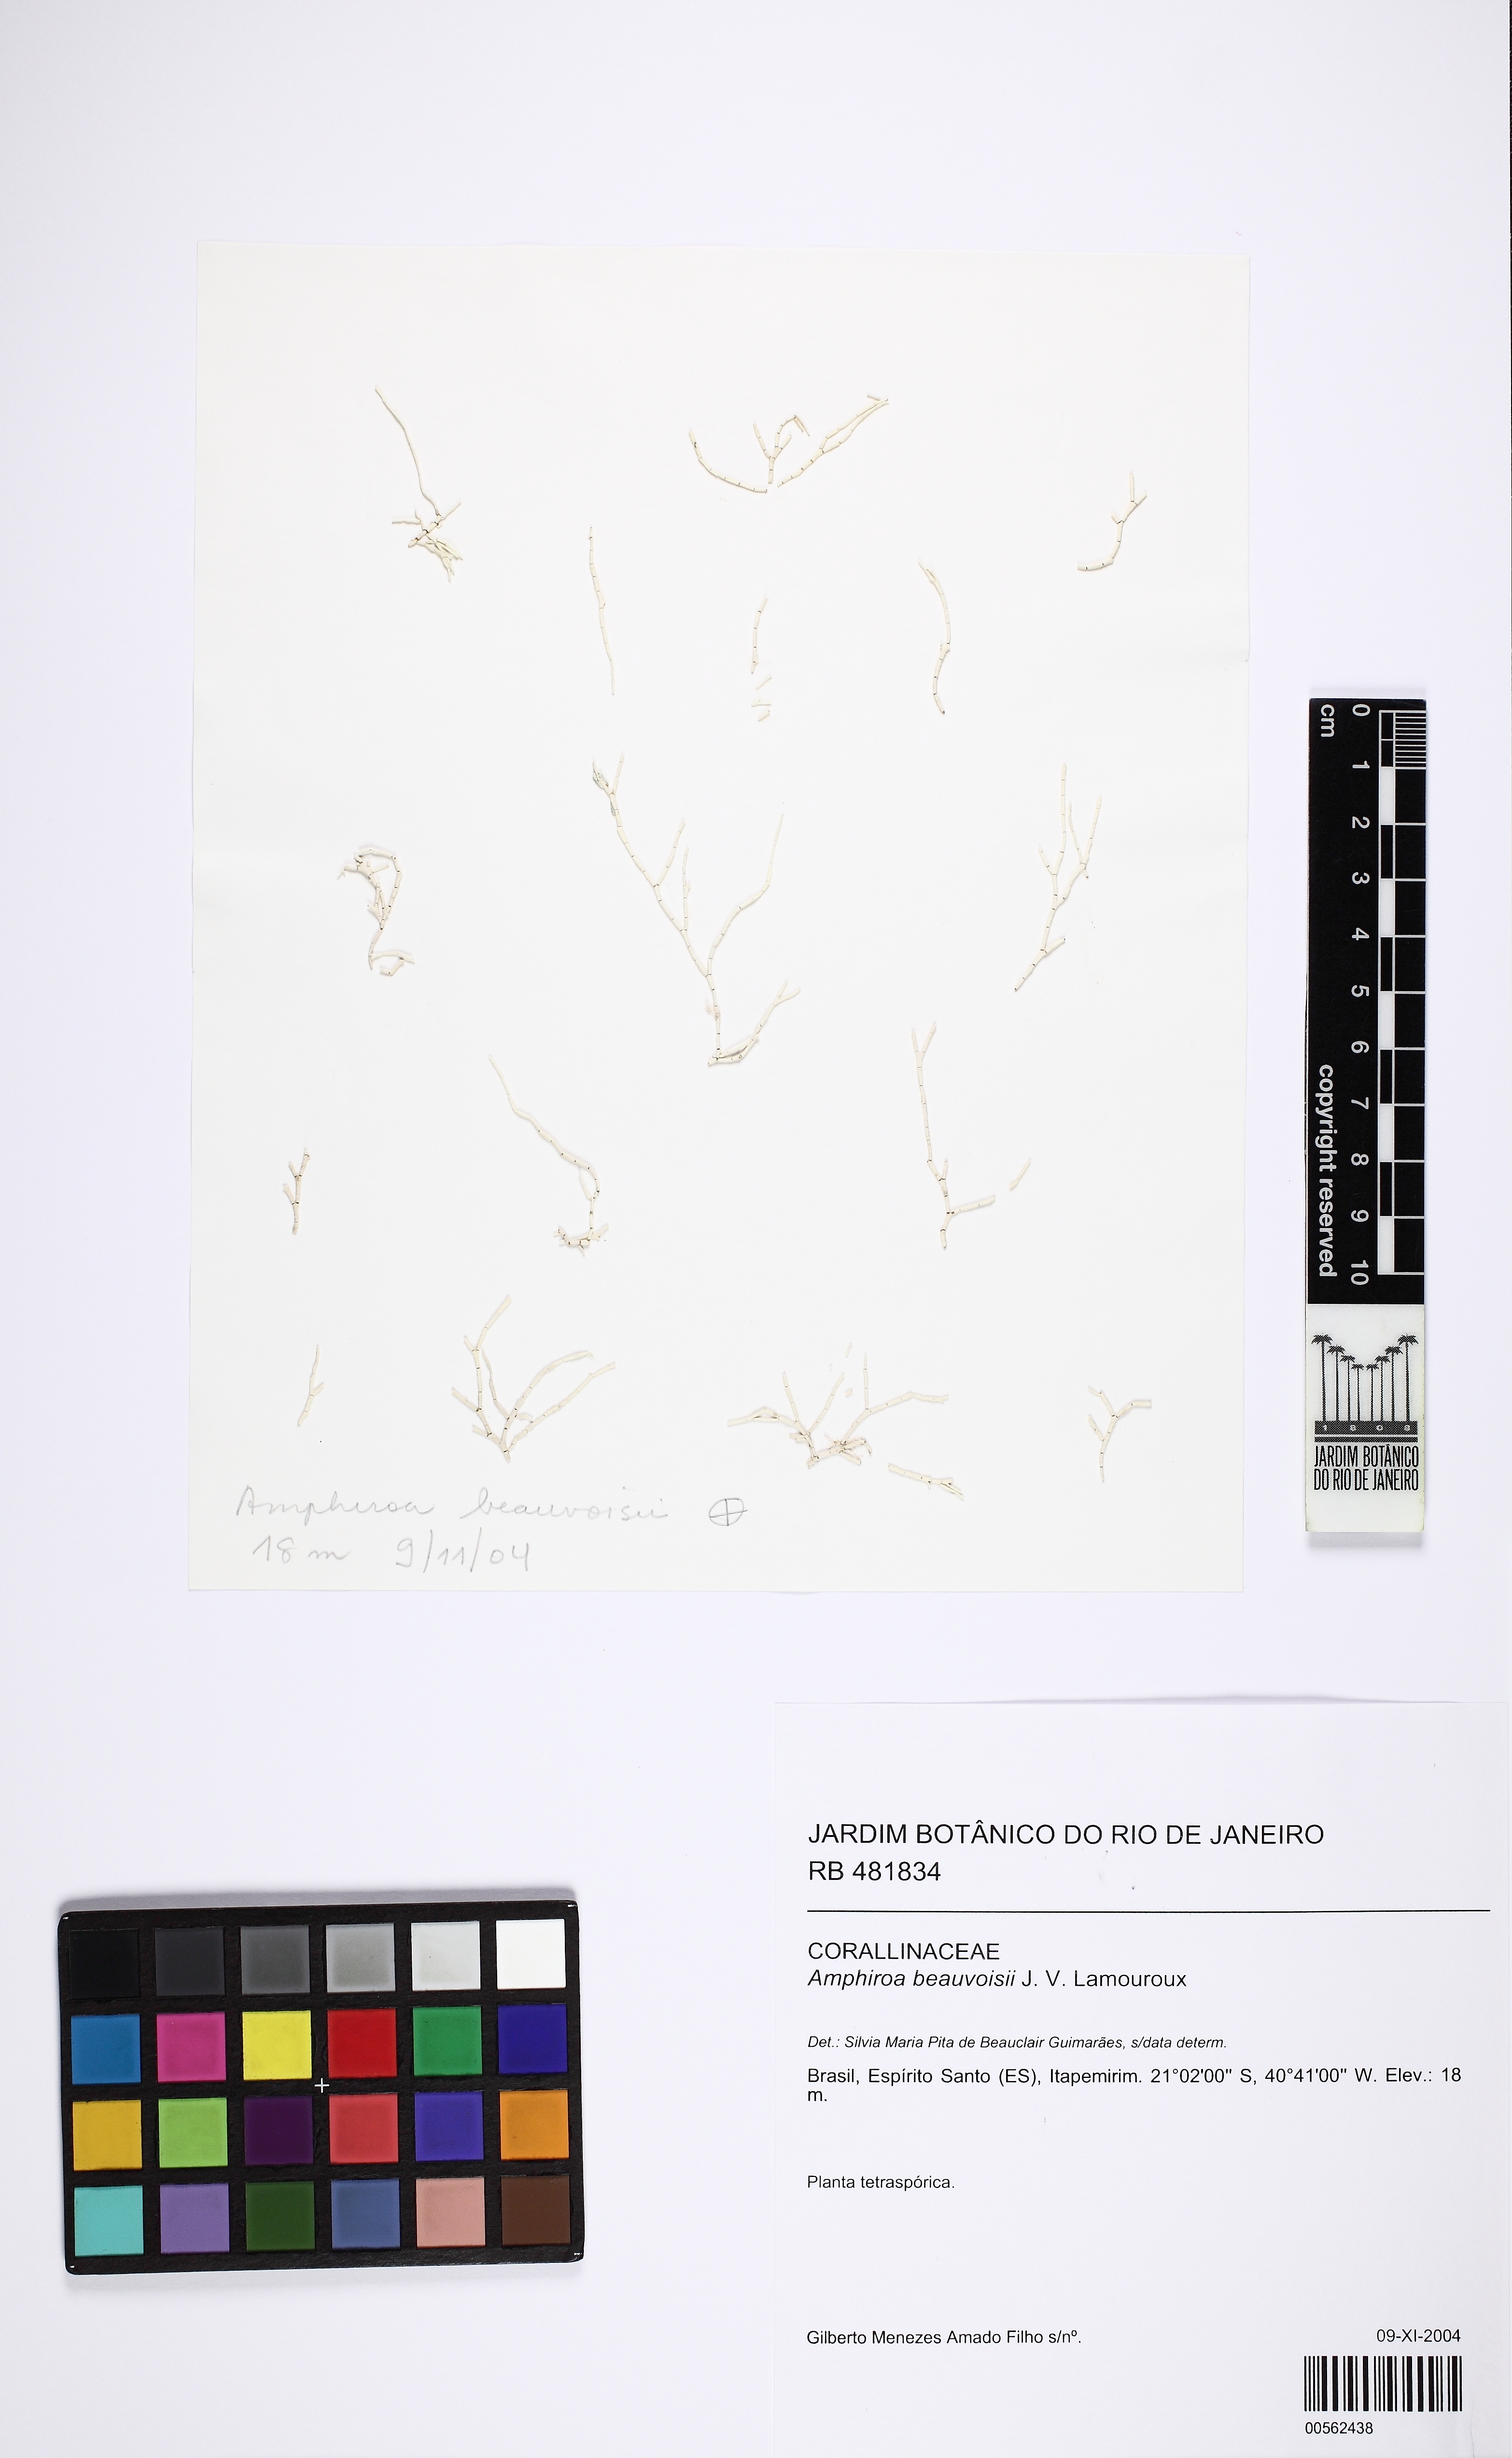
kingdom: Plantae
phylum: Rhodophyta
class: Florideophyceae
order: Corallinales
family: Lithophyllaceae
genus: Amphiroa
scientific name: Amphiroa beauvoisii
